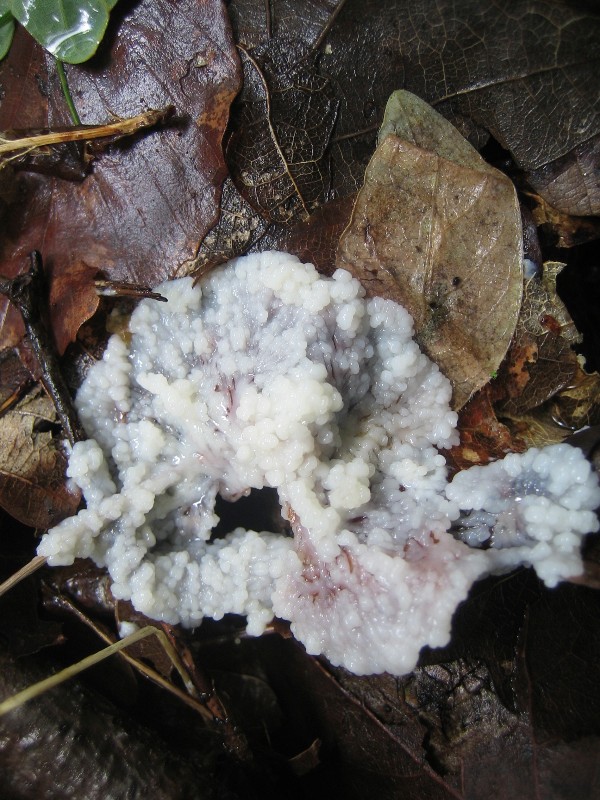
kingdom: Protozoa
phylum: Mycetozoa
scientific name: Mycetozoa
